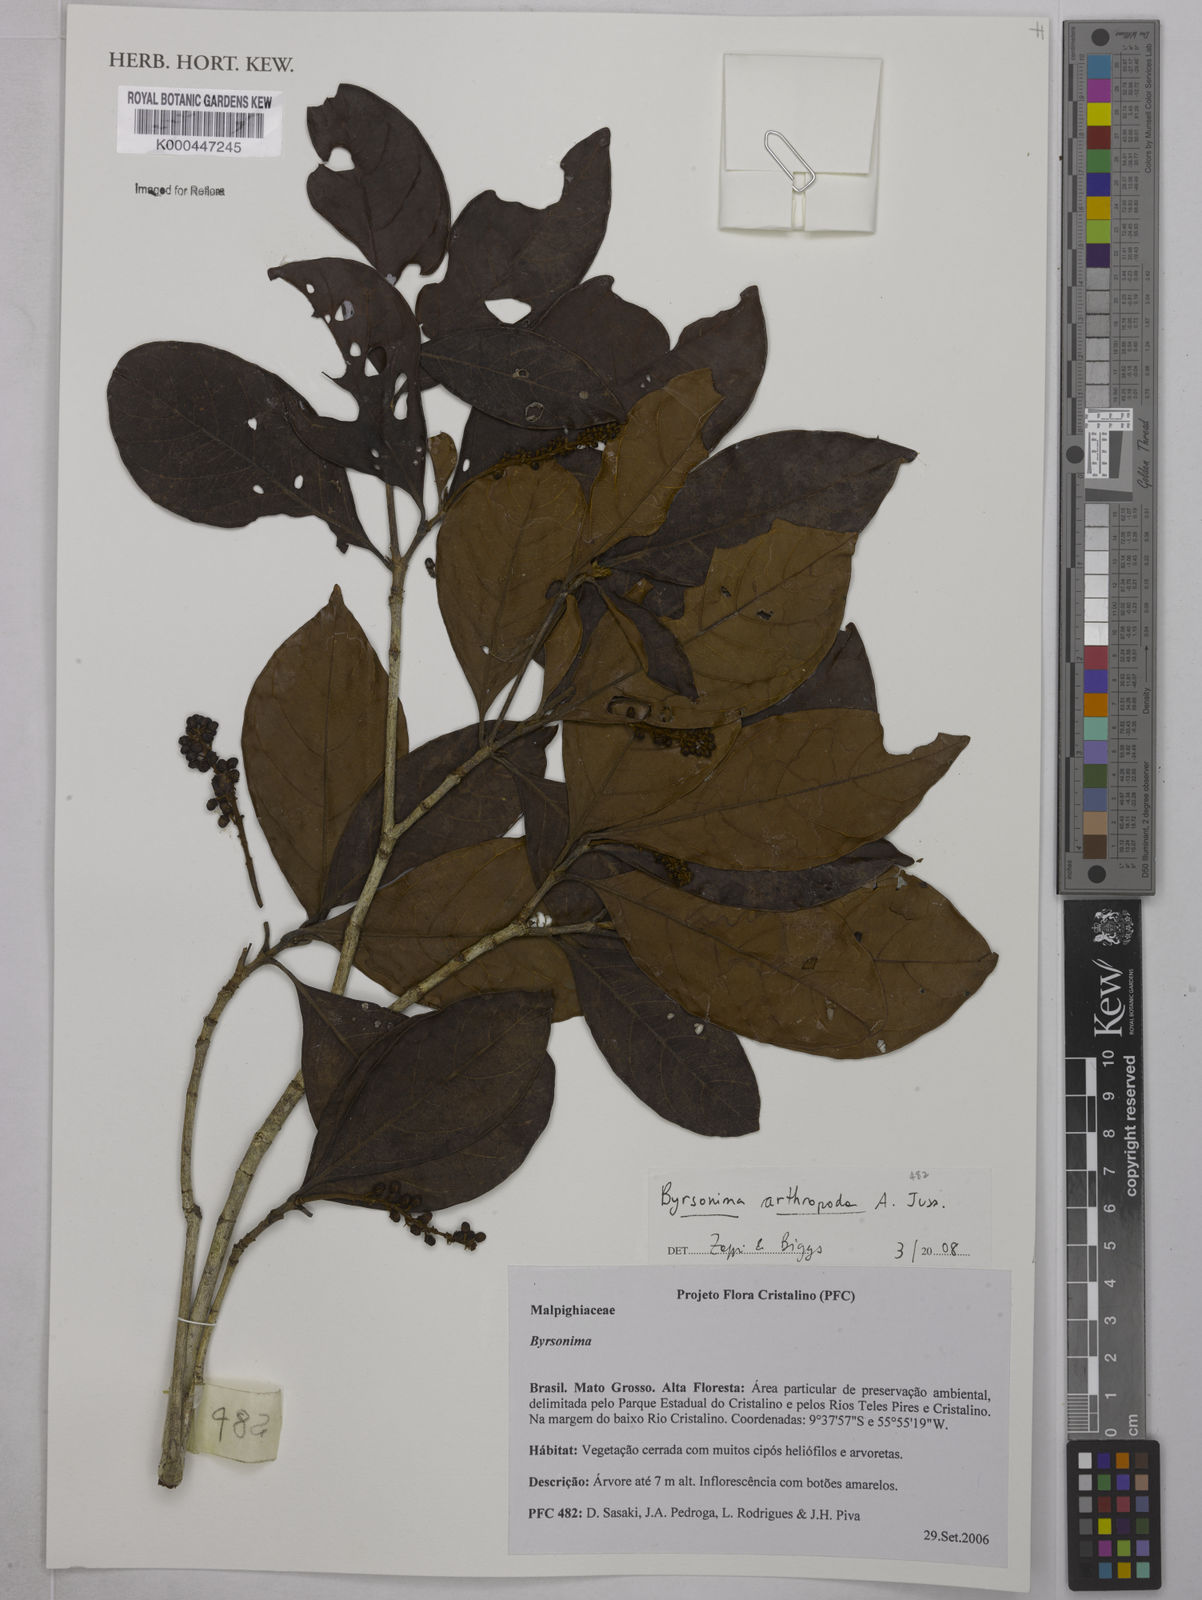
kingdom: Plantae
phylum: Tracheophyta
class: Magnoliopsida
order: Malpighiales
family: Malpighiaceae
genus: Byrsonima
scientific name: Byrsonima arthropoda
